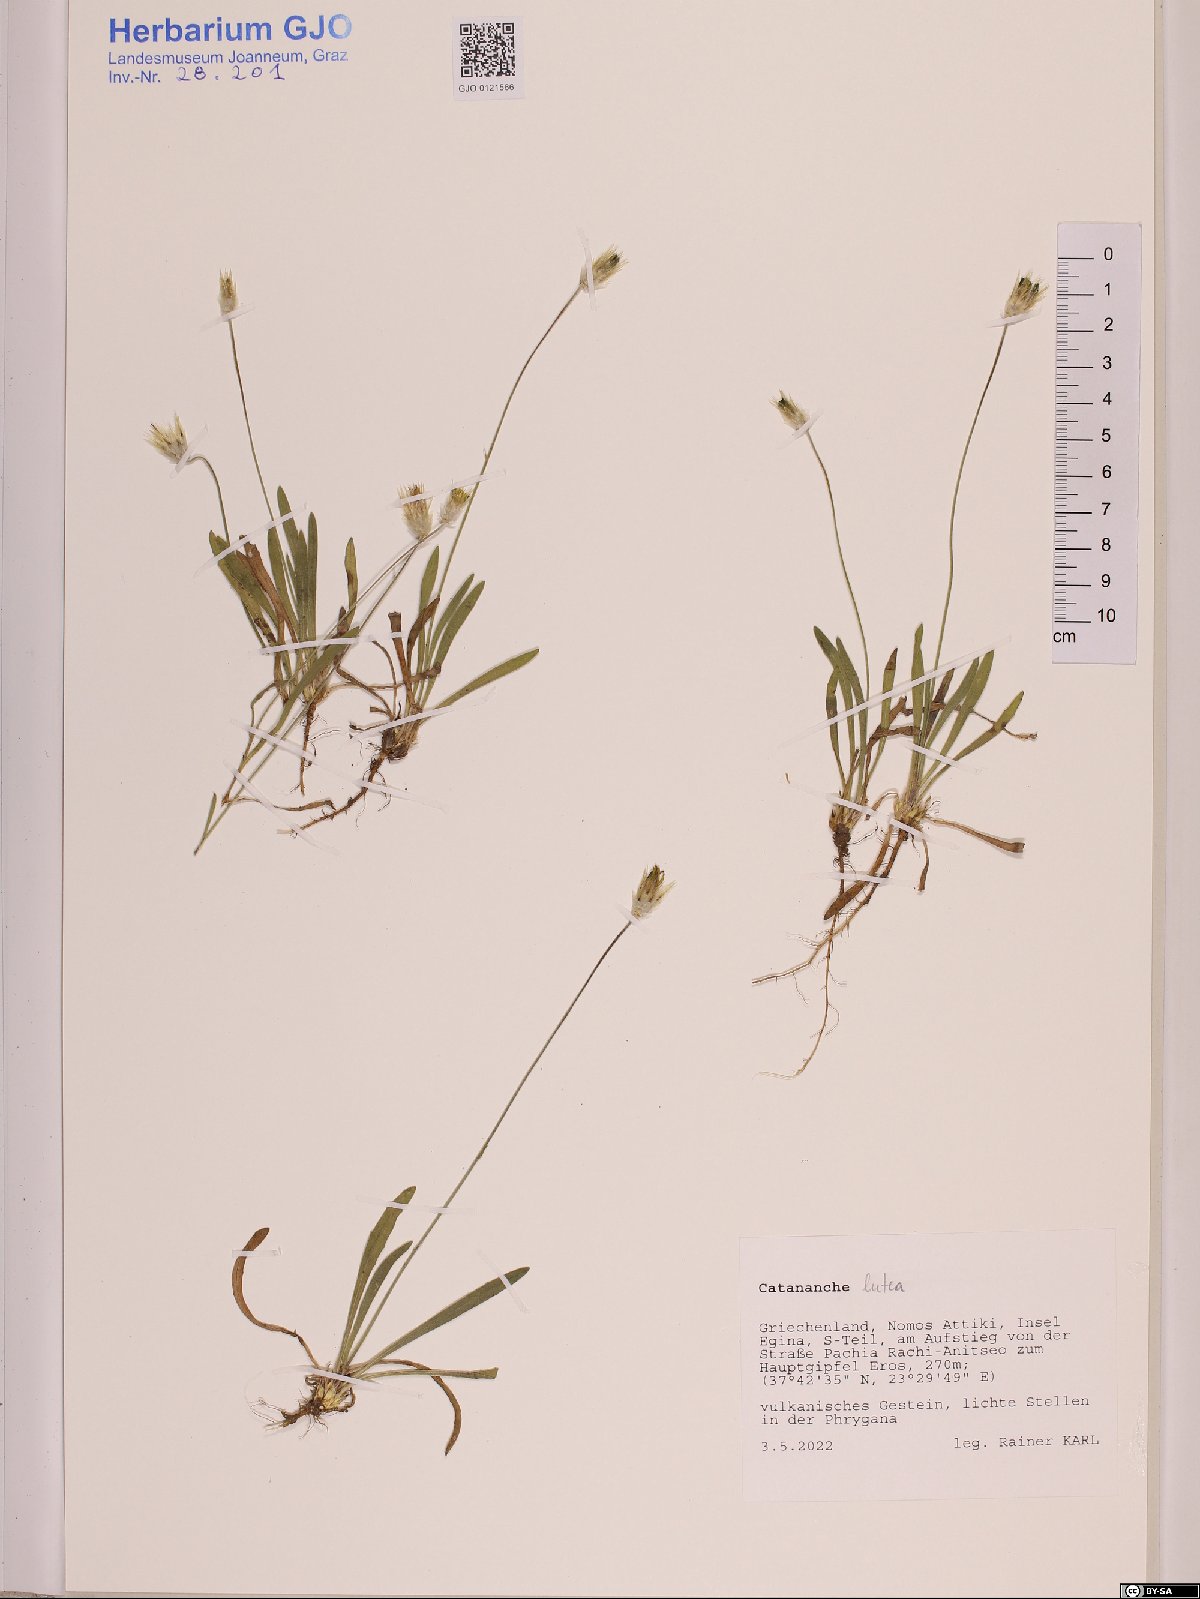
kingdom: Plantae
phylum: Tracheophyta
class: Magnoliopsida
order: Asterales
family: Asteraceae
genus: Catananche
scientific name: Catananche lutea
